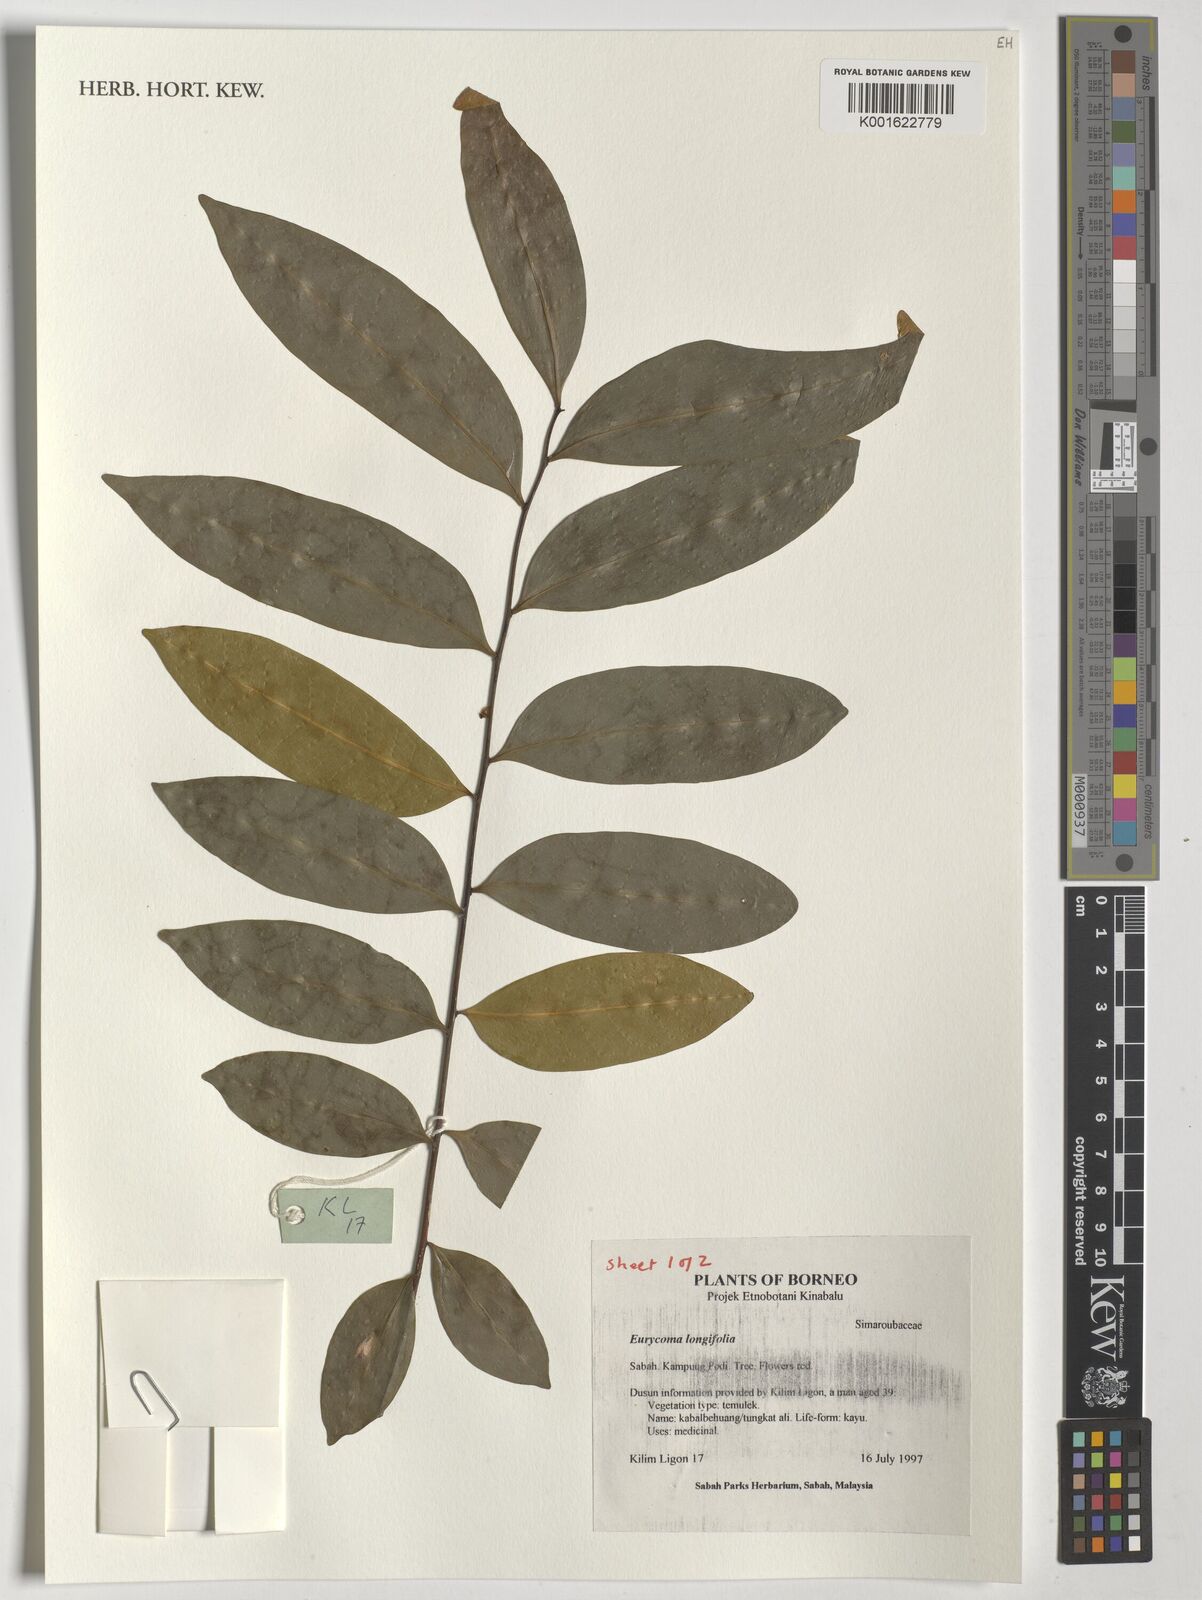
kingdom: Plantae
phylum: Tracheophyta
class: Magnoliopsida
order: Sapindales
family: Simaroubaceae
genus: Eurycoma
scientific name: Eurycoma longifolia
